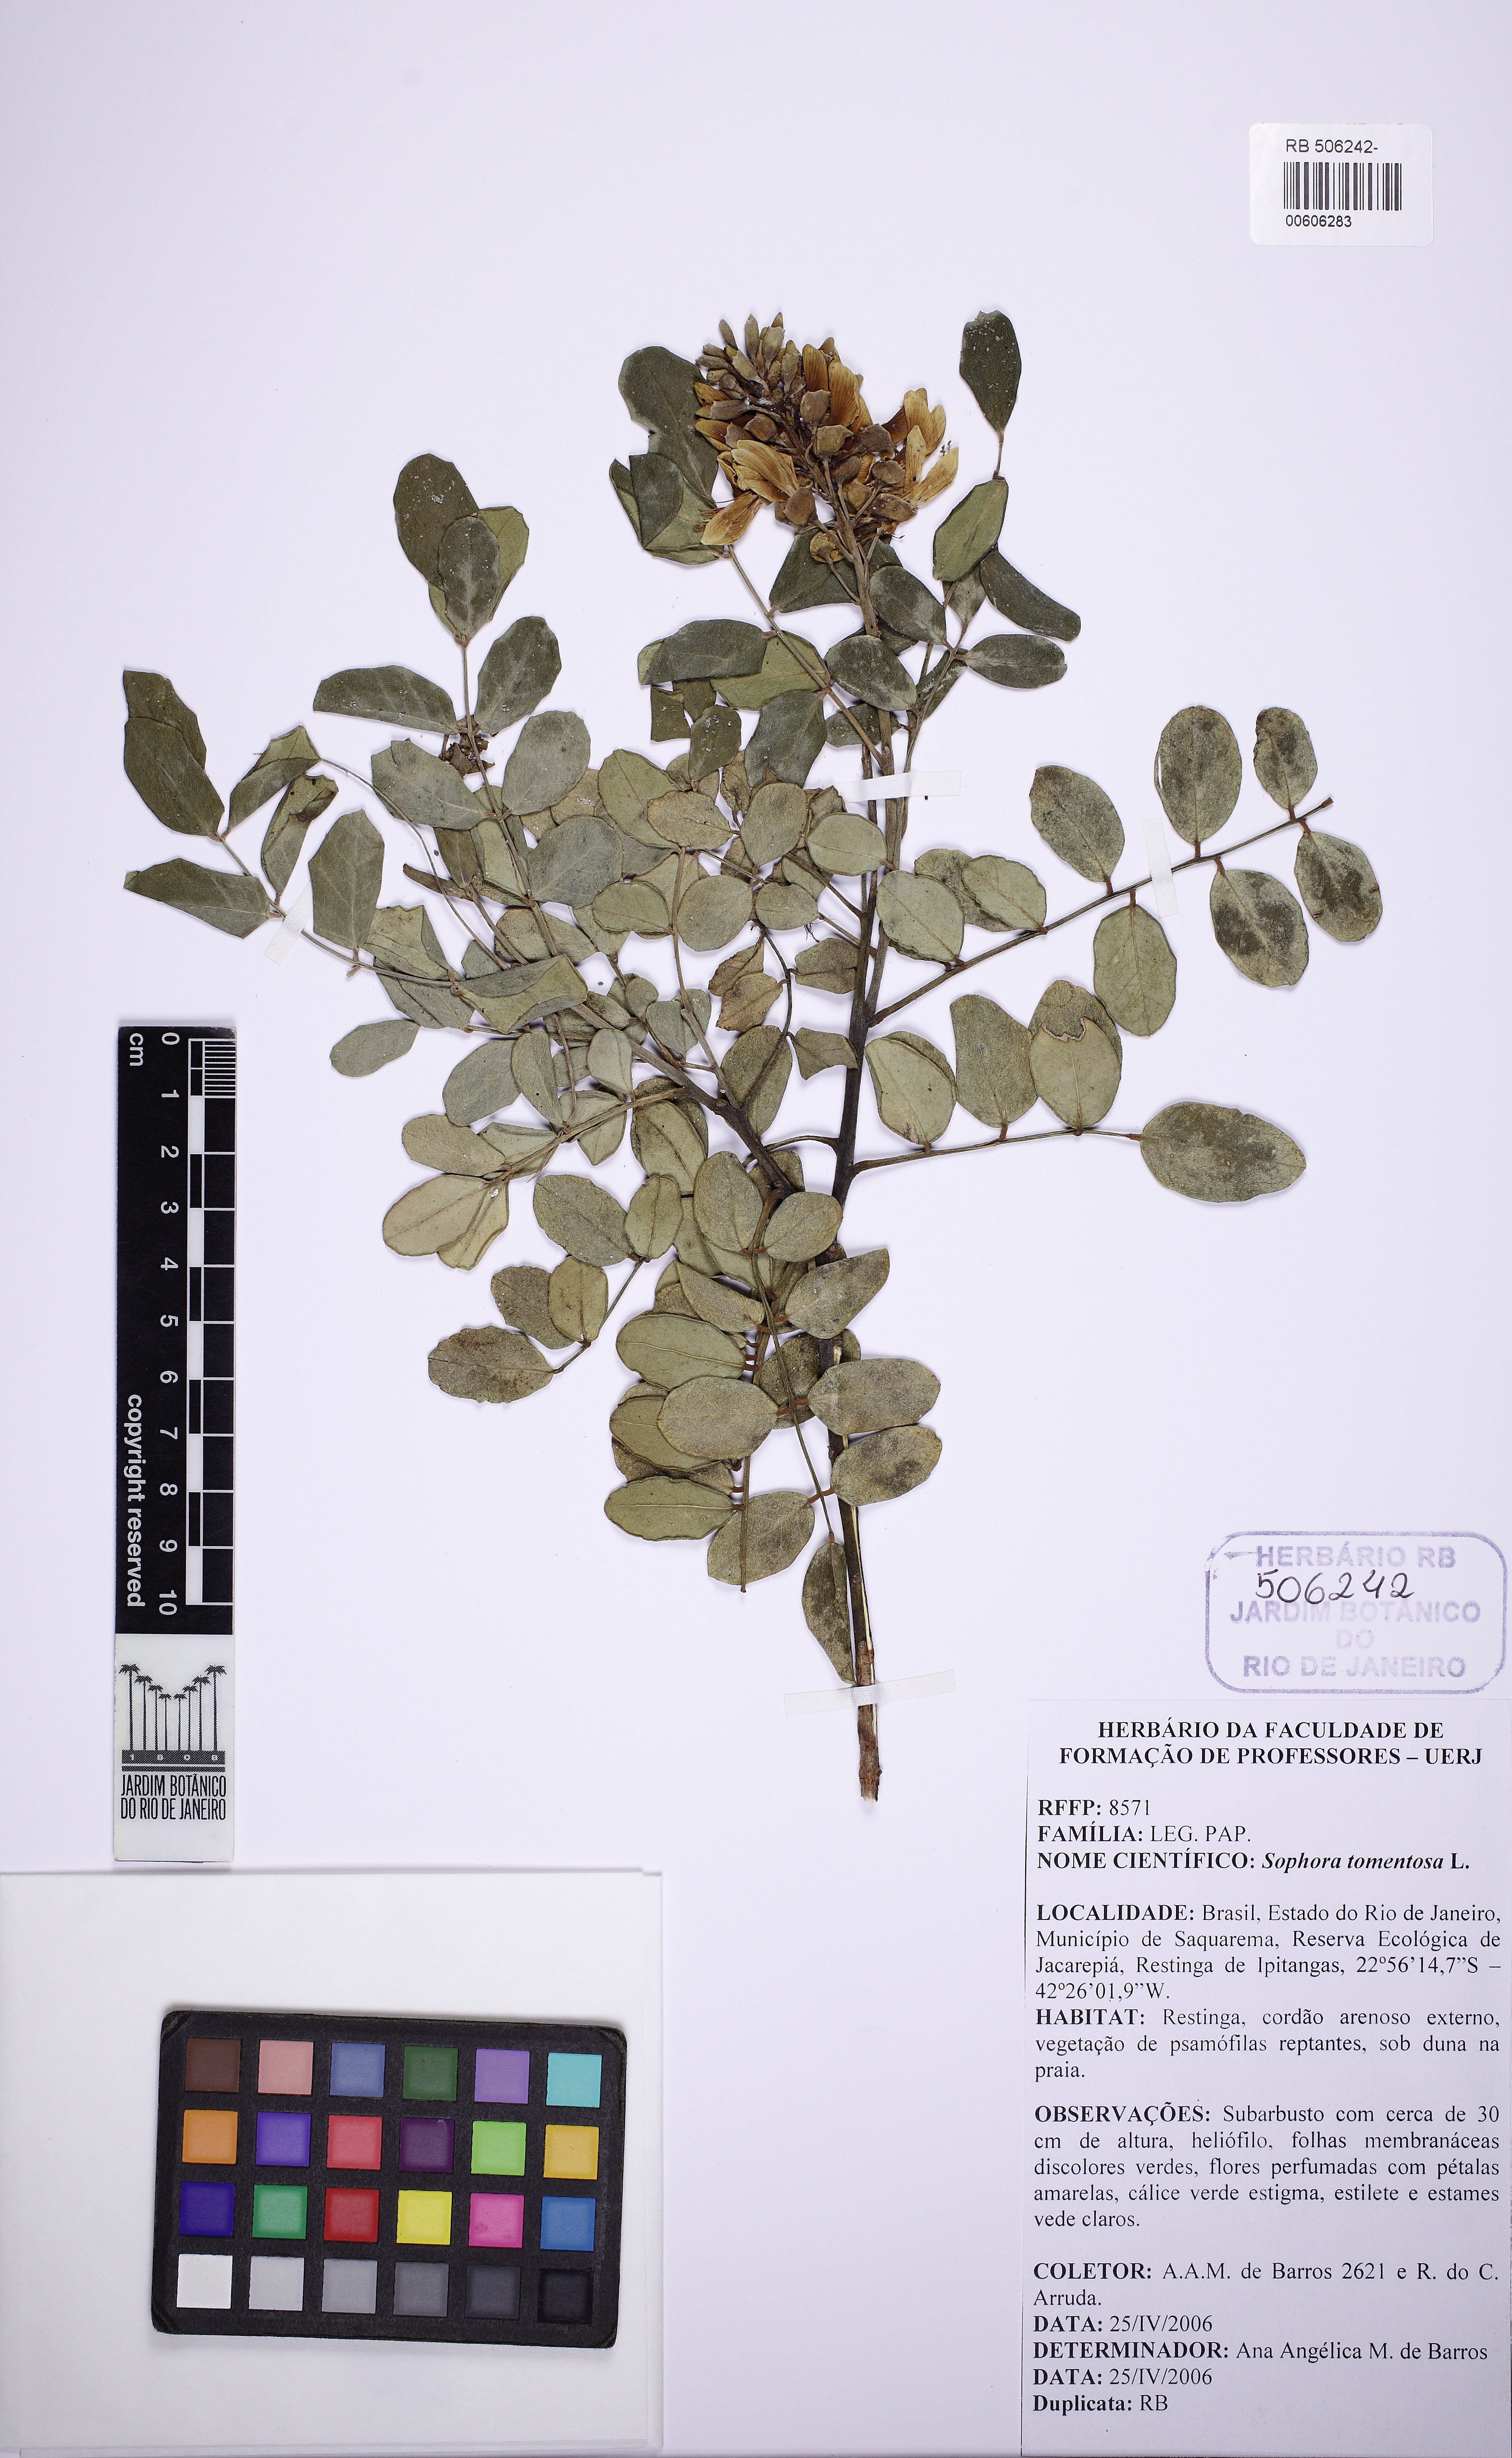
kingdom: Plantae
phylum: Tracheophyta
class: Magnoliopsida
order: Fabales
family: Fabaceae
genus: Sophora
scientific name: Sophora tomentosa
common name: Yellow necklacepod
